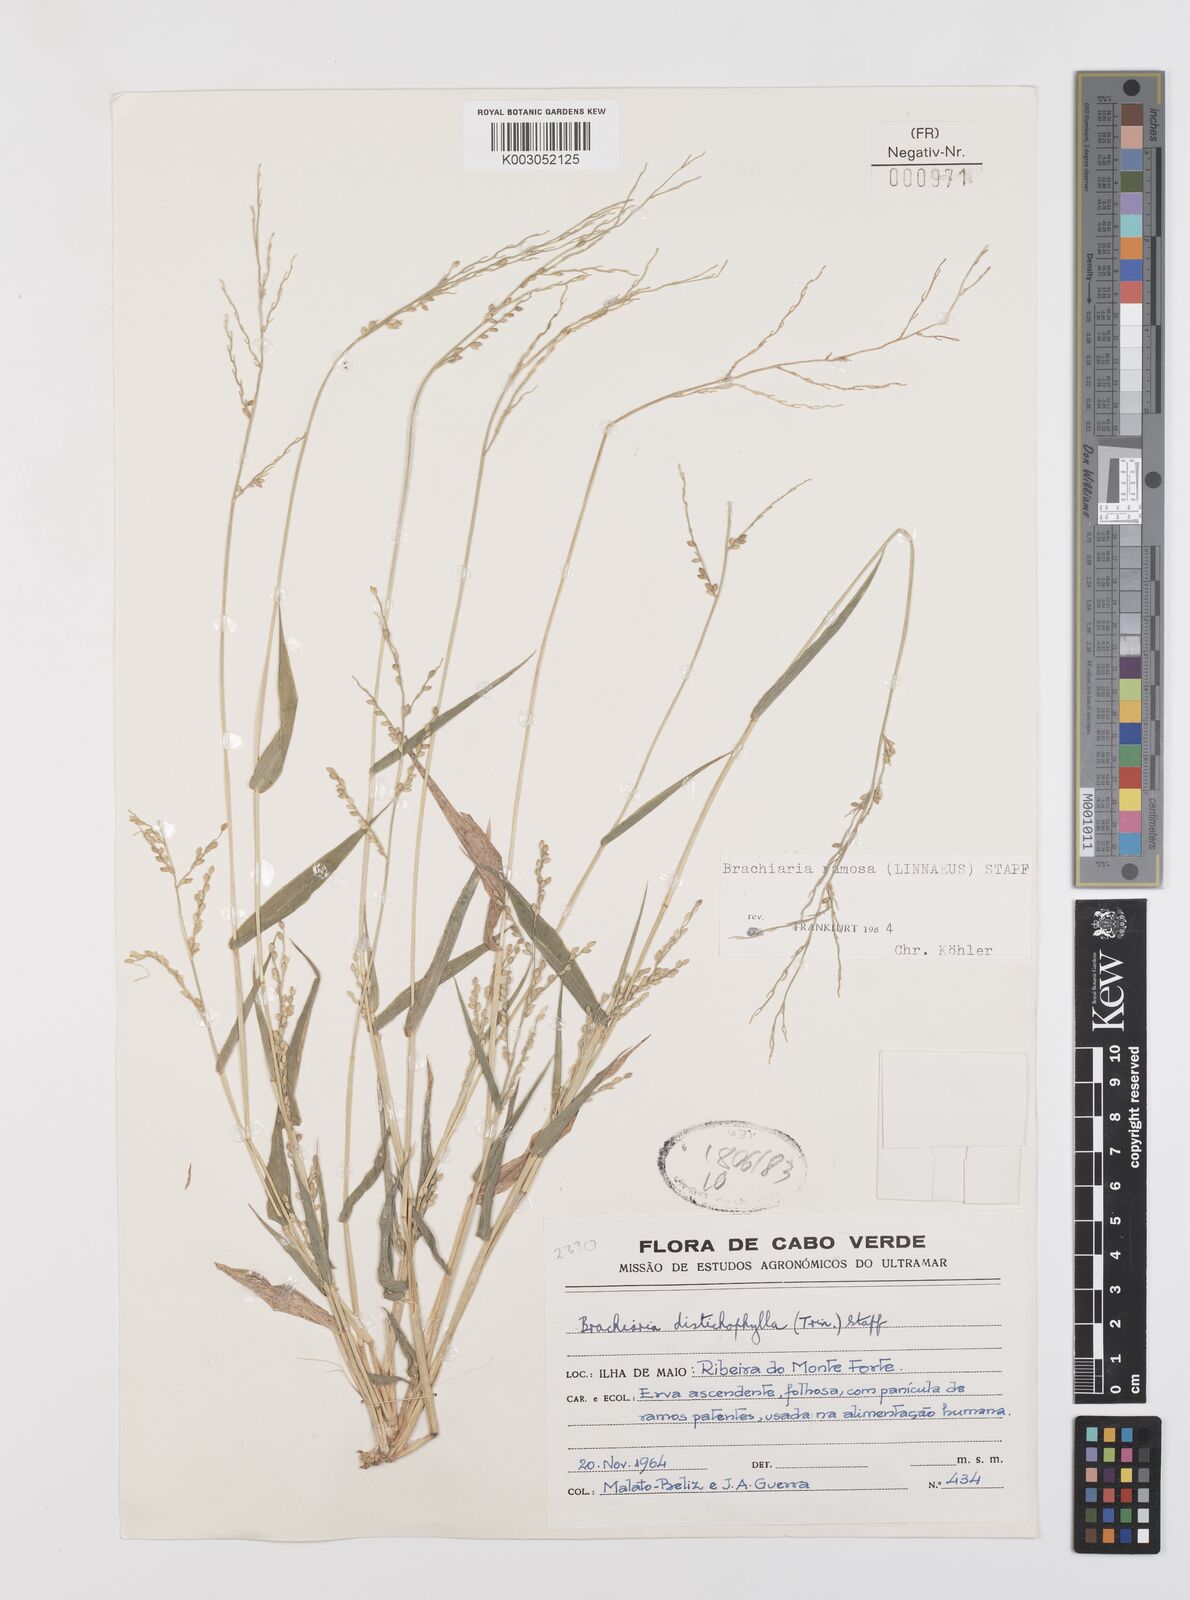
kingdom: Plantae
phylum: Tracheophyta
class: Liliopsida
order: Poales
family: Poaceae
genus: Urochloa
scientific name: Urochloa villosa
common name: Hairy signalgrass
